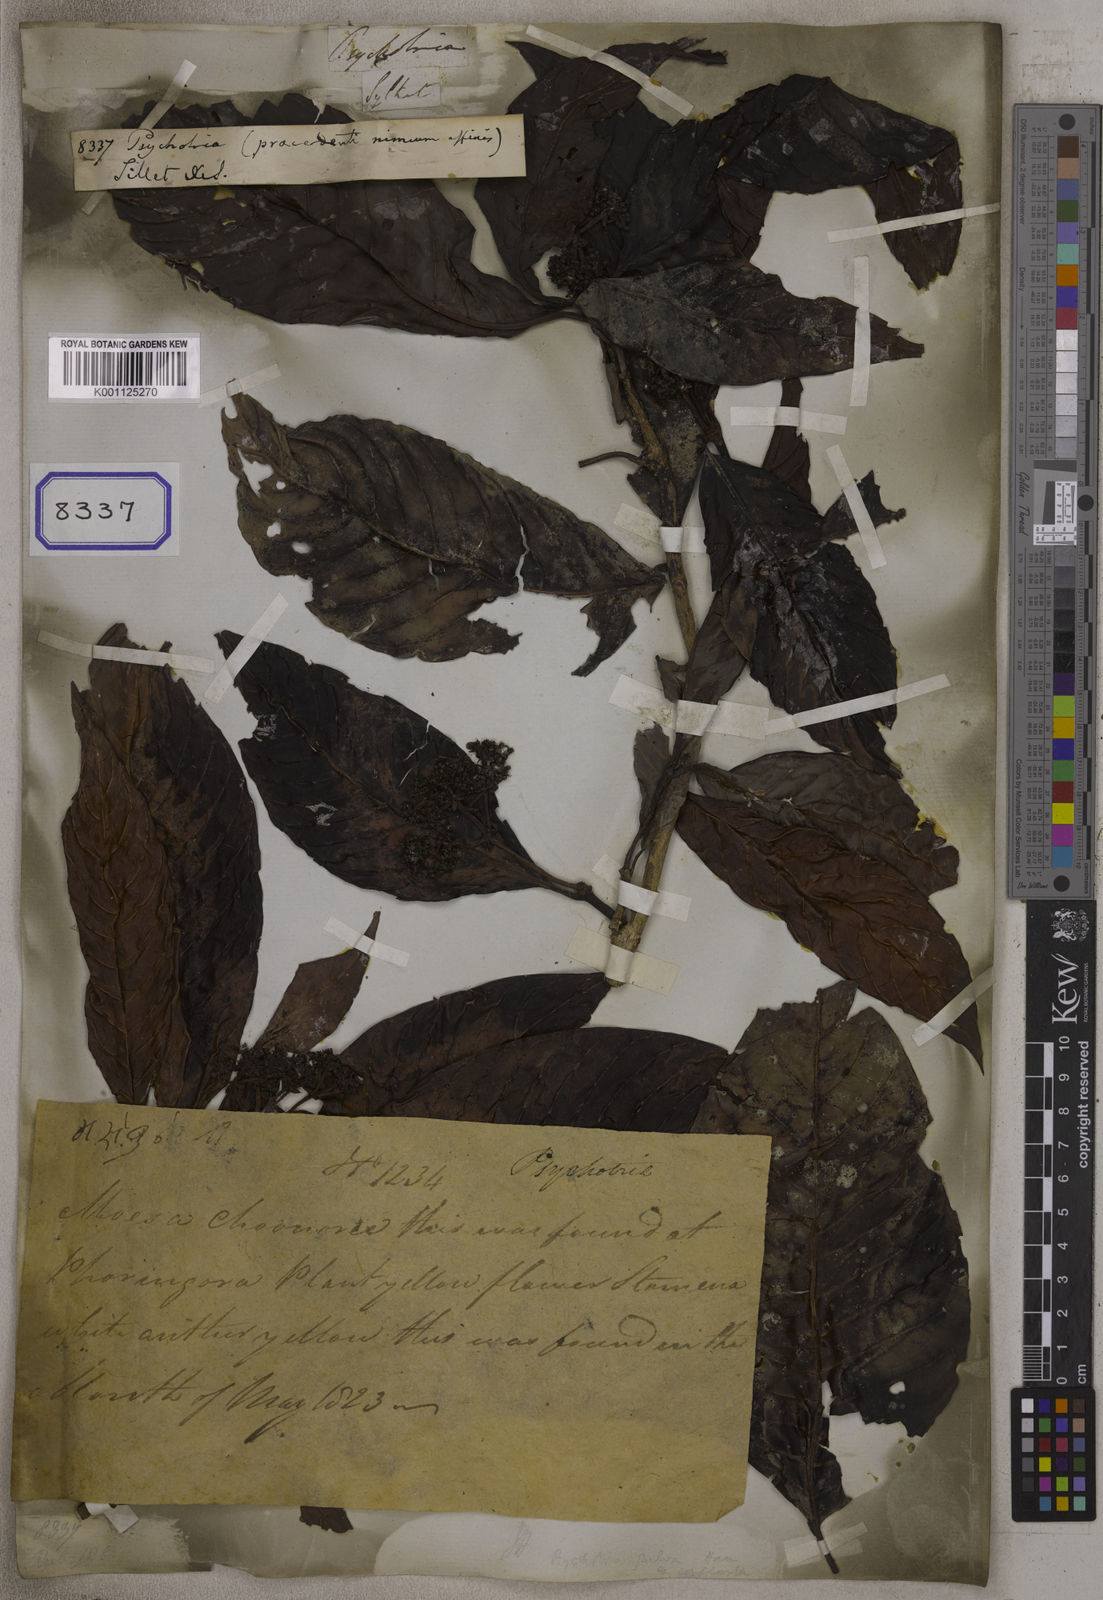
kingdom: Plantae
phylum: Tracheophyta
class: Magnoliopsida
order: Gentianales
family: Rubiaceae
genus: Psychotria
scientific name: Psychotria
